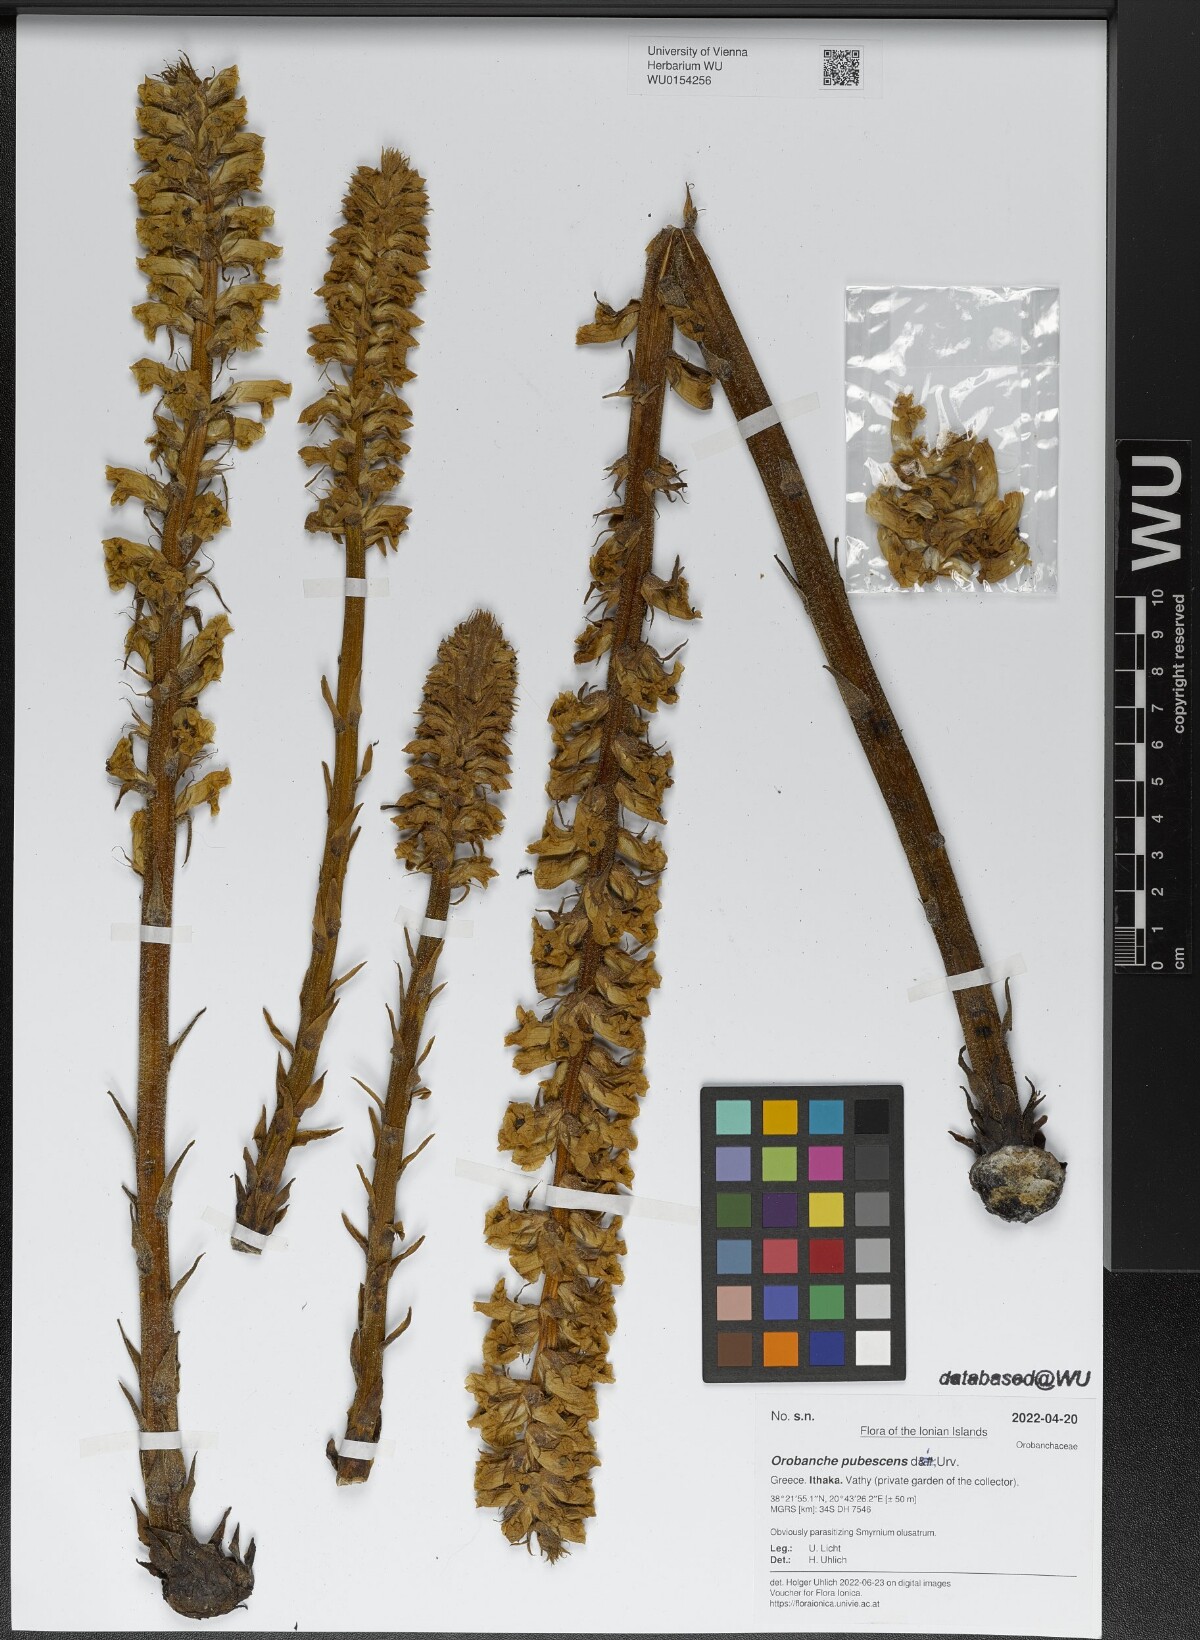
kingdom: Plantae
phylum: Tracheophyta
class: Magnoliopsida
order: Lamiales
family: Orobanchaceae
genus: Orobanche
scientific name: Orobanche pubescens
